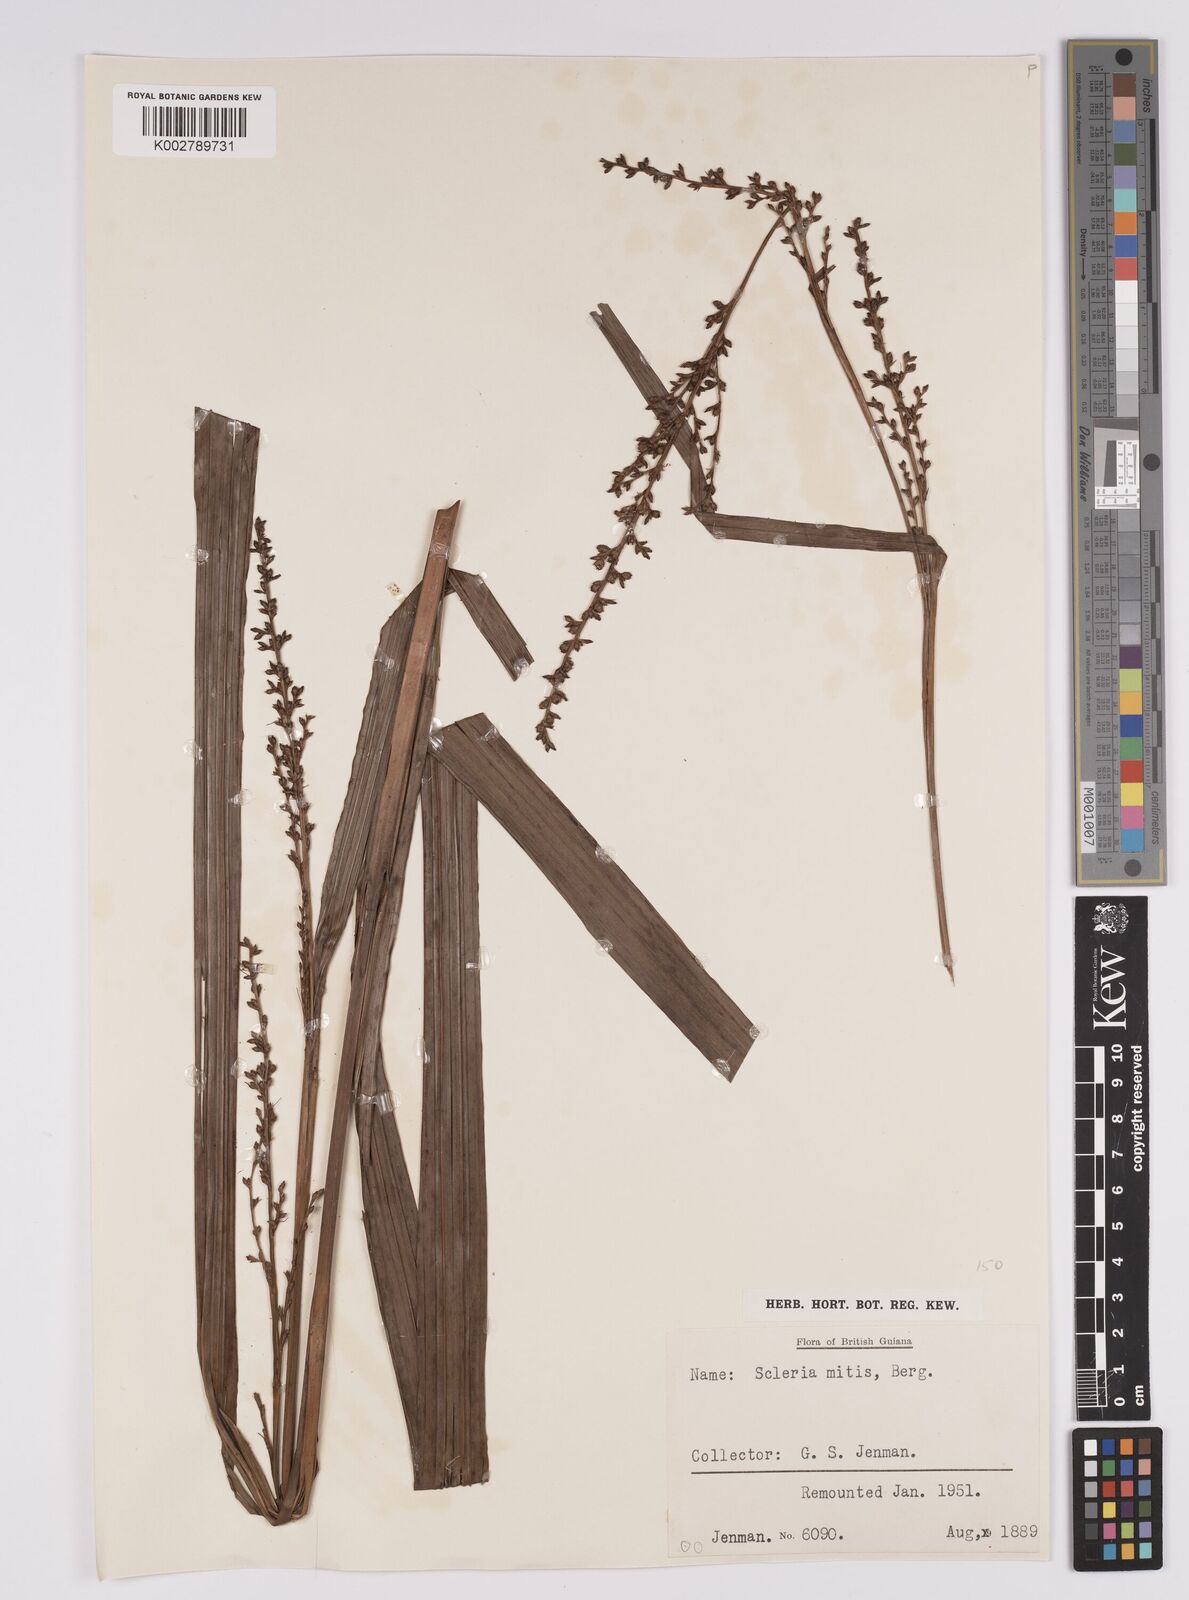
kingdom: Plantae
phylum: Tracheophyta
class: Liliopsida
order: Poales
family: Cyperaceae
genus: Scleria
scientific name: Scleria mitis
